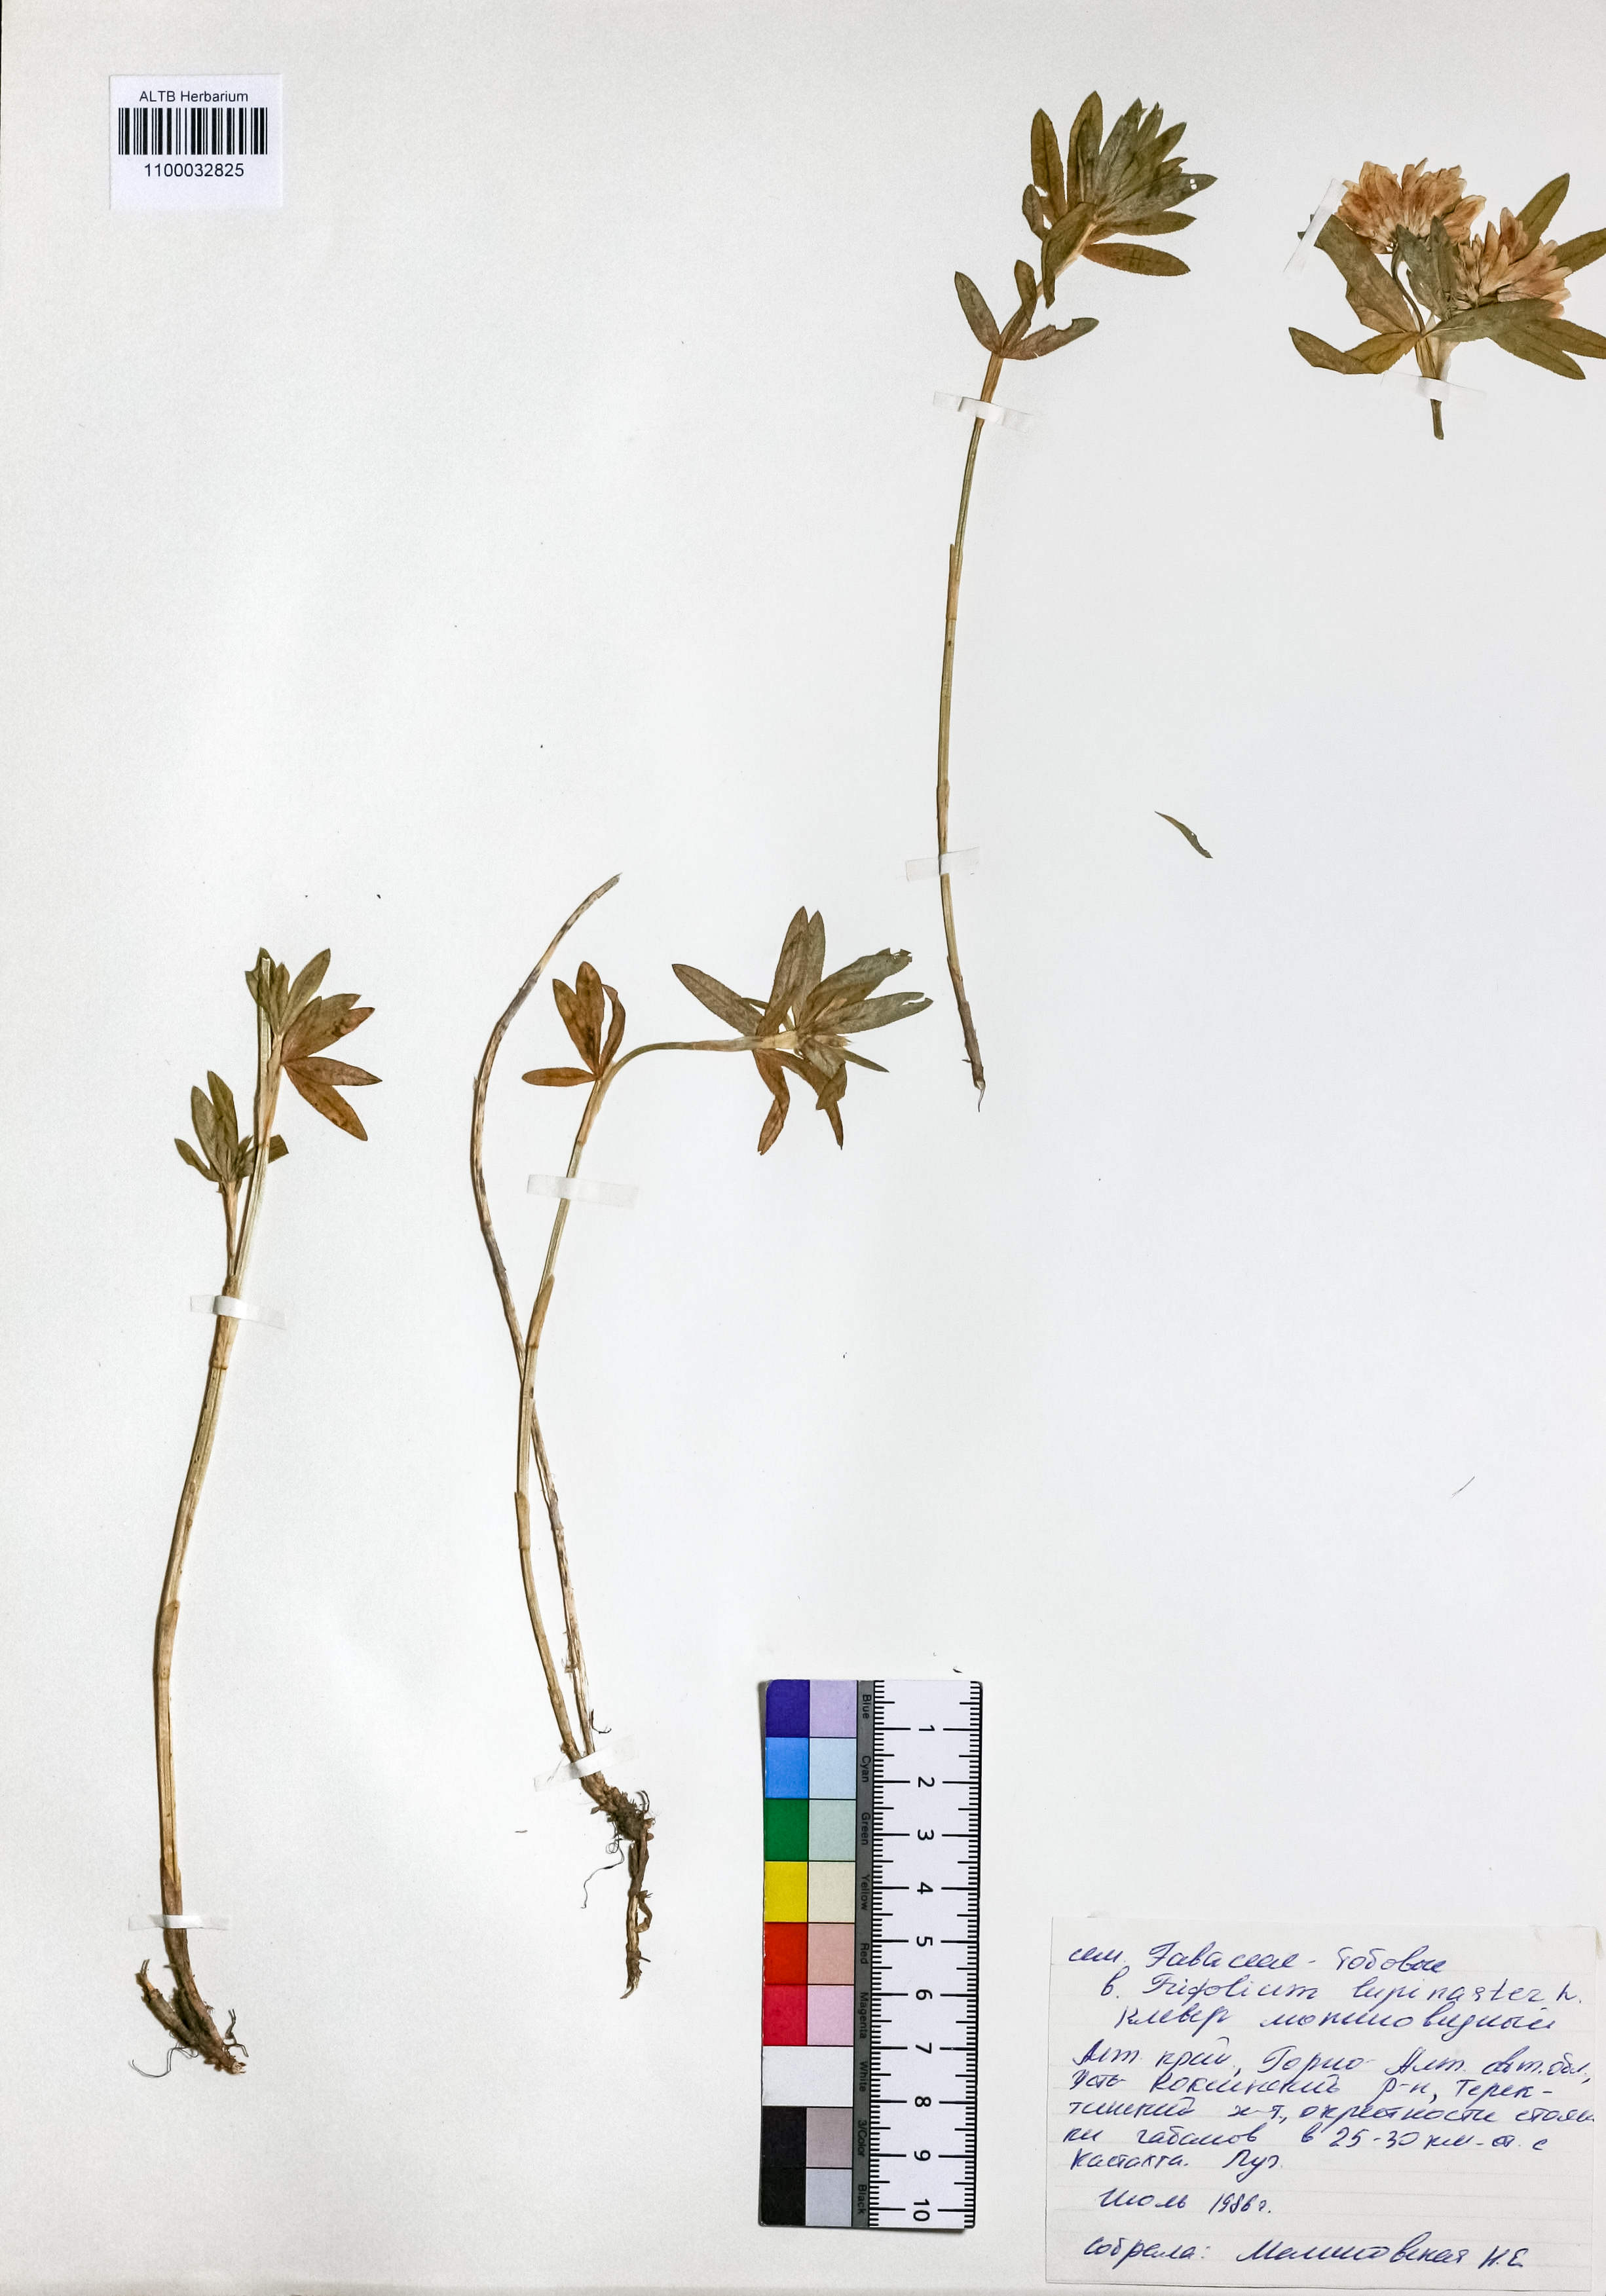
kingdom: Plantae
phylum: Tracheophyta
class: Magnoliopsida
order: Fabales
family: Fabaceae
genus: Trifolium
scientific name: Trifolium lupinaster
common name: Lupine clover
